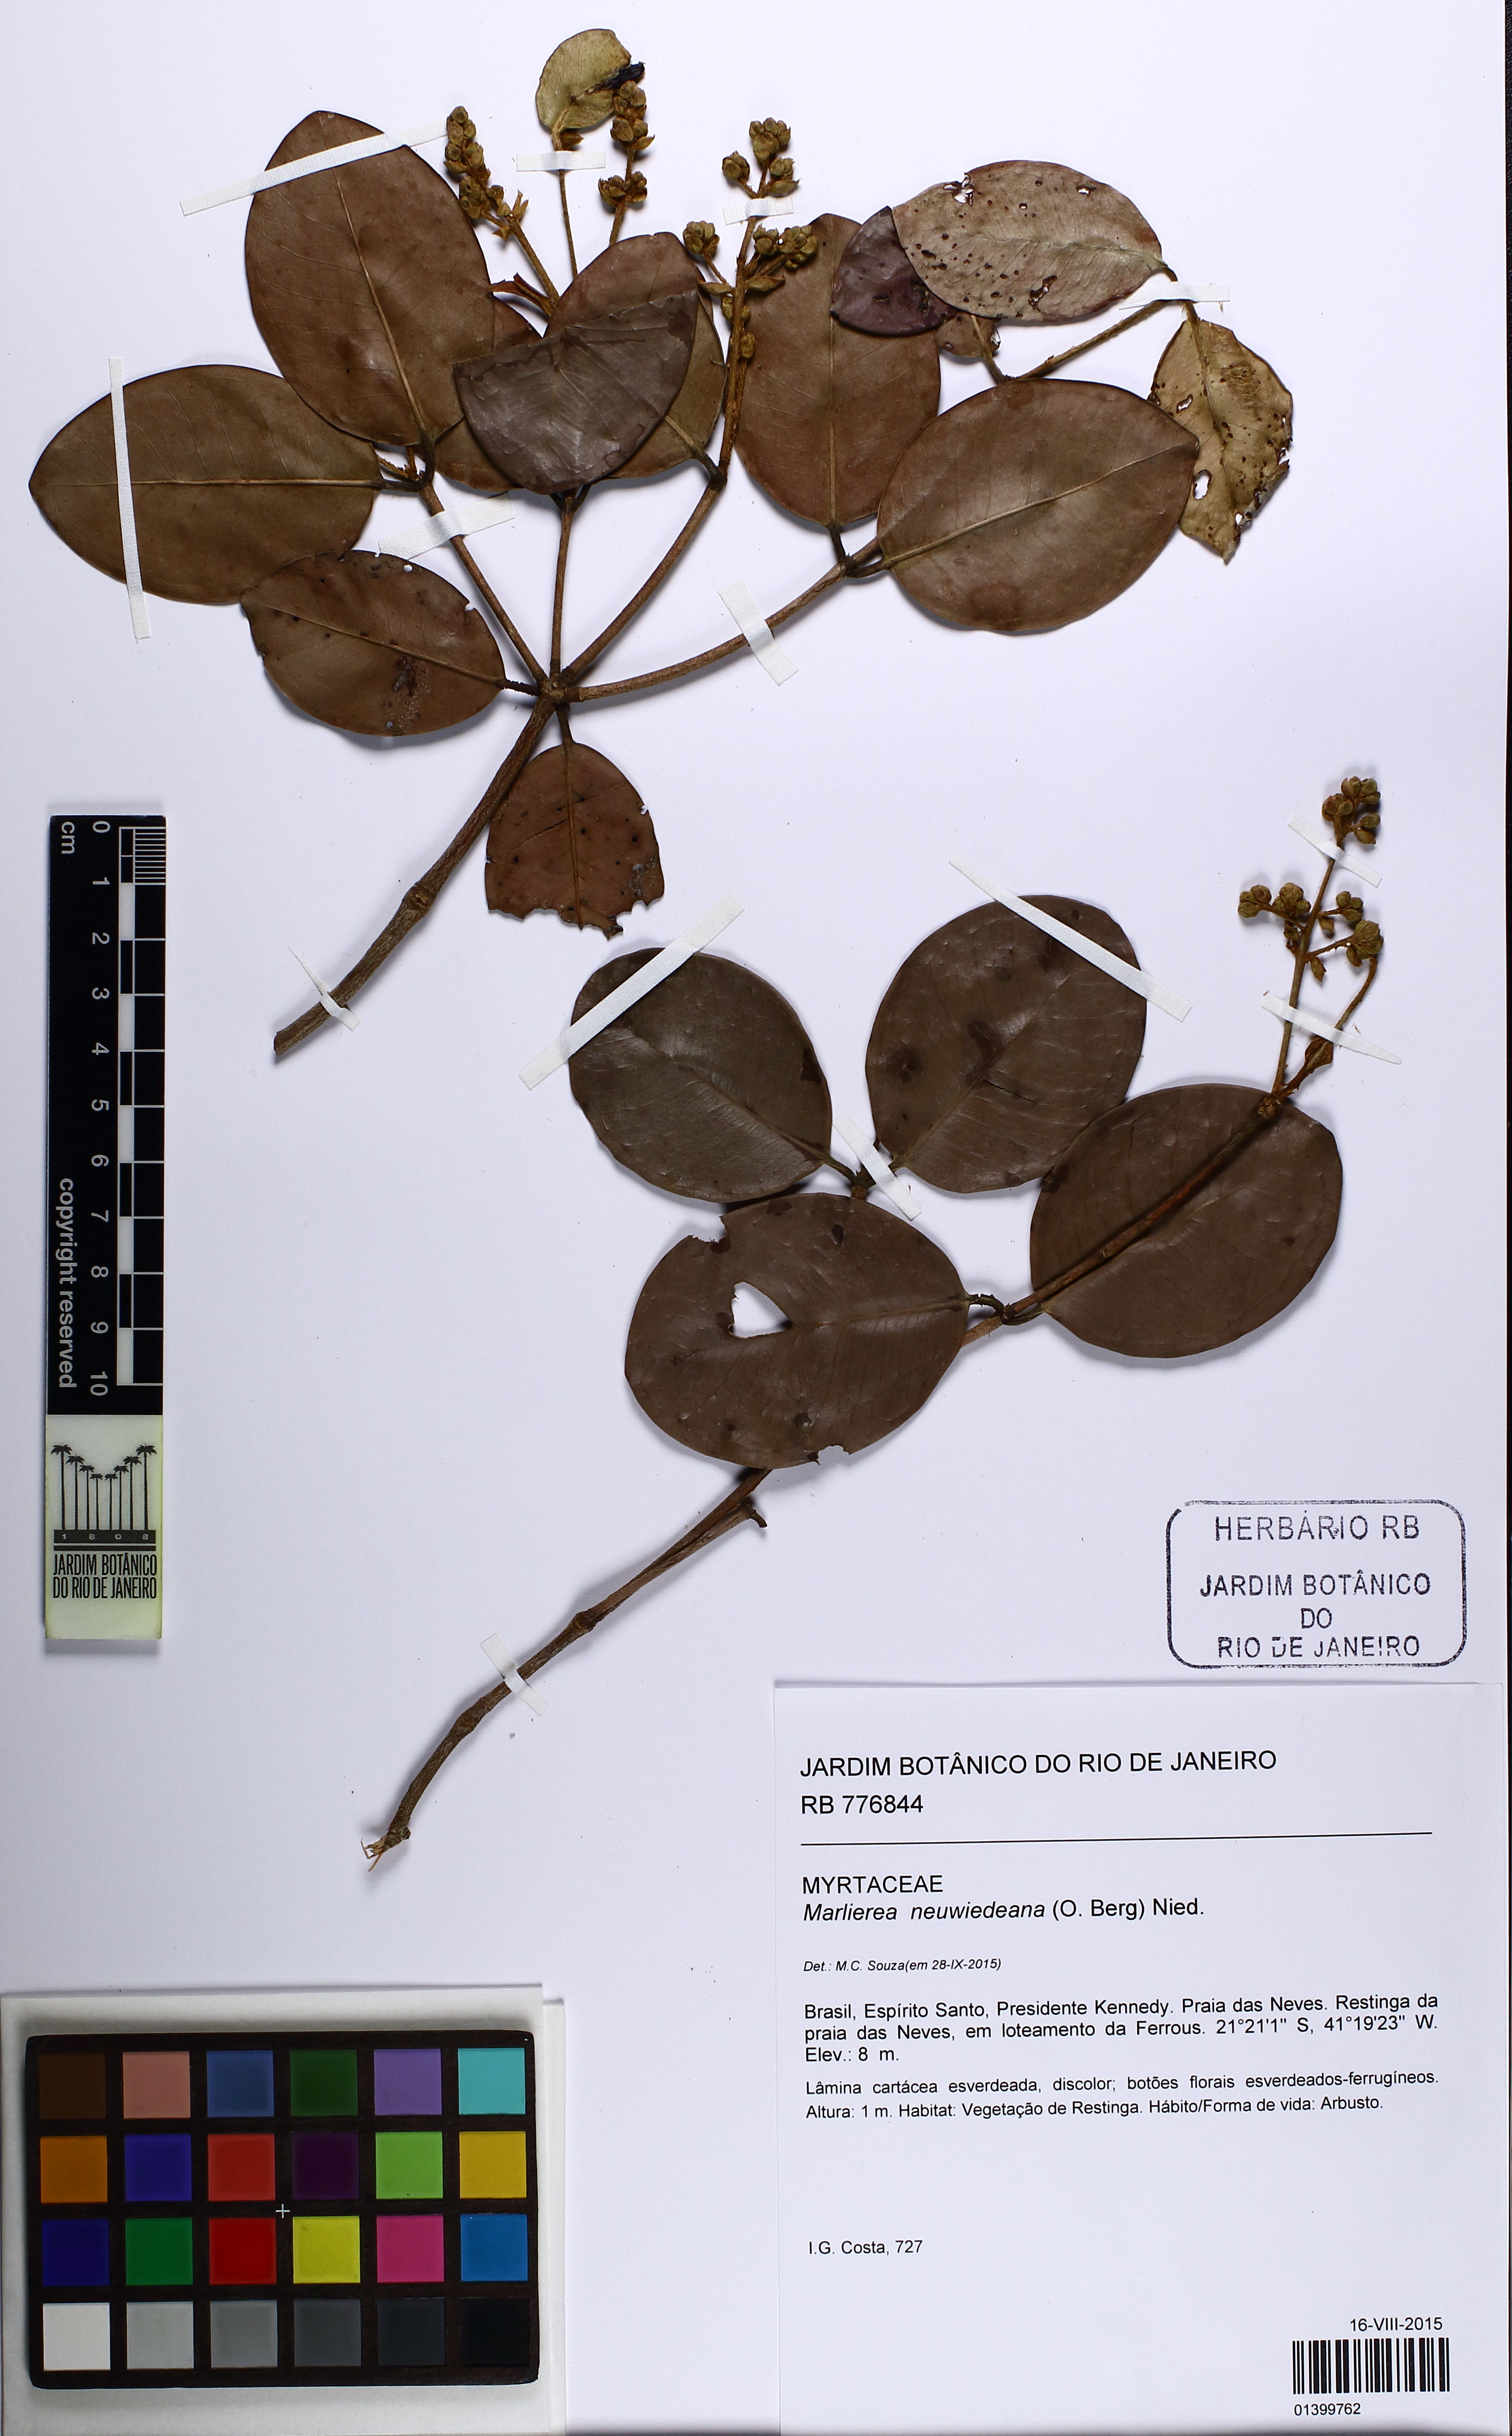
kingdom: Plantae
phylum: Tracheophyta
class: Magnoliopsida
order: Myrtales
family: Myrtaceae
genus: Myrcia
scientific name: Myrcia neuwiedeana
